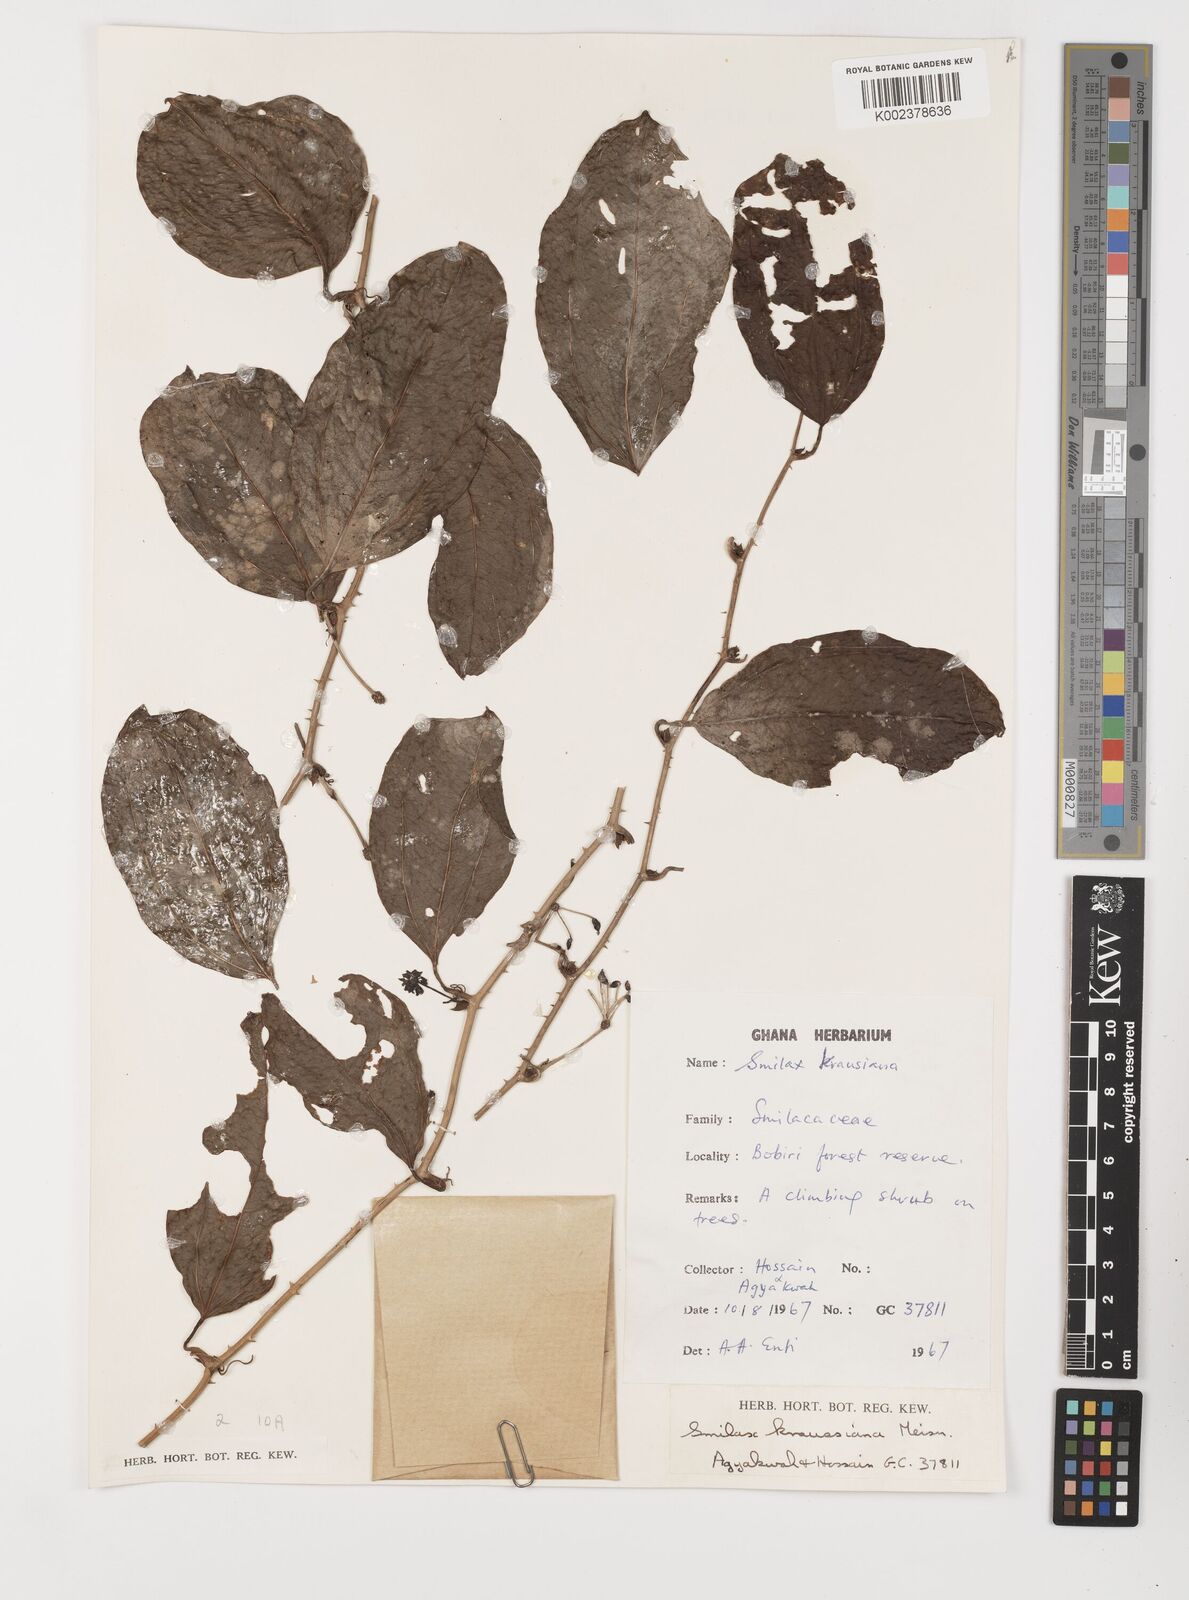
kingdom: Plantae
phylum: Tracheophyta
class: Liliopsida
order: Liliales
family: Smilacaceae
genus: Smilax
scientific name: Smilax anceps
